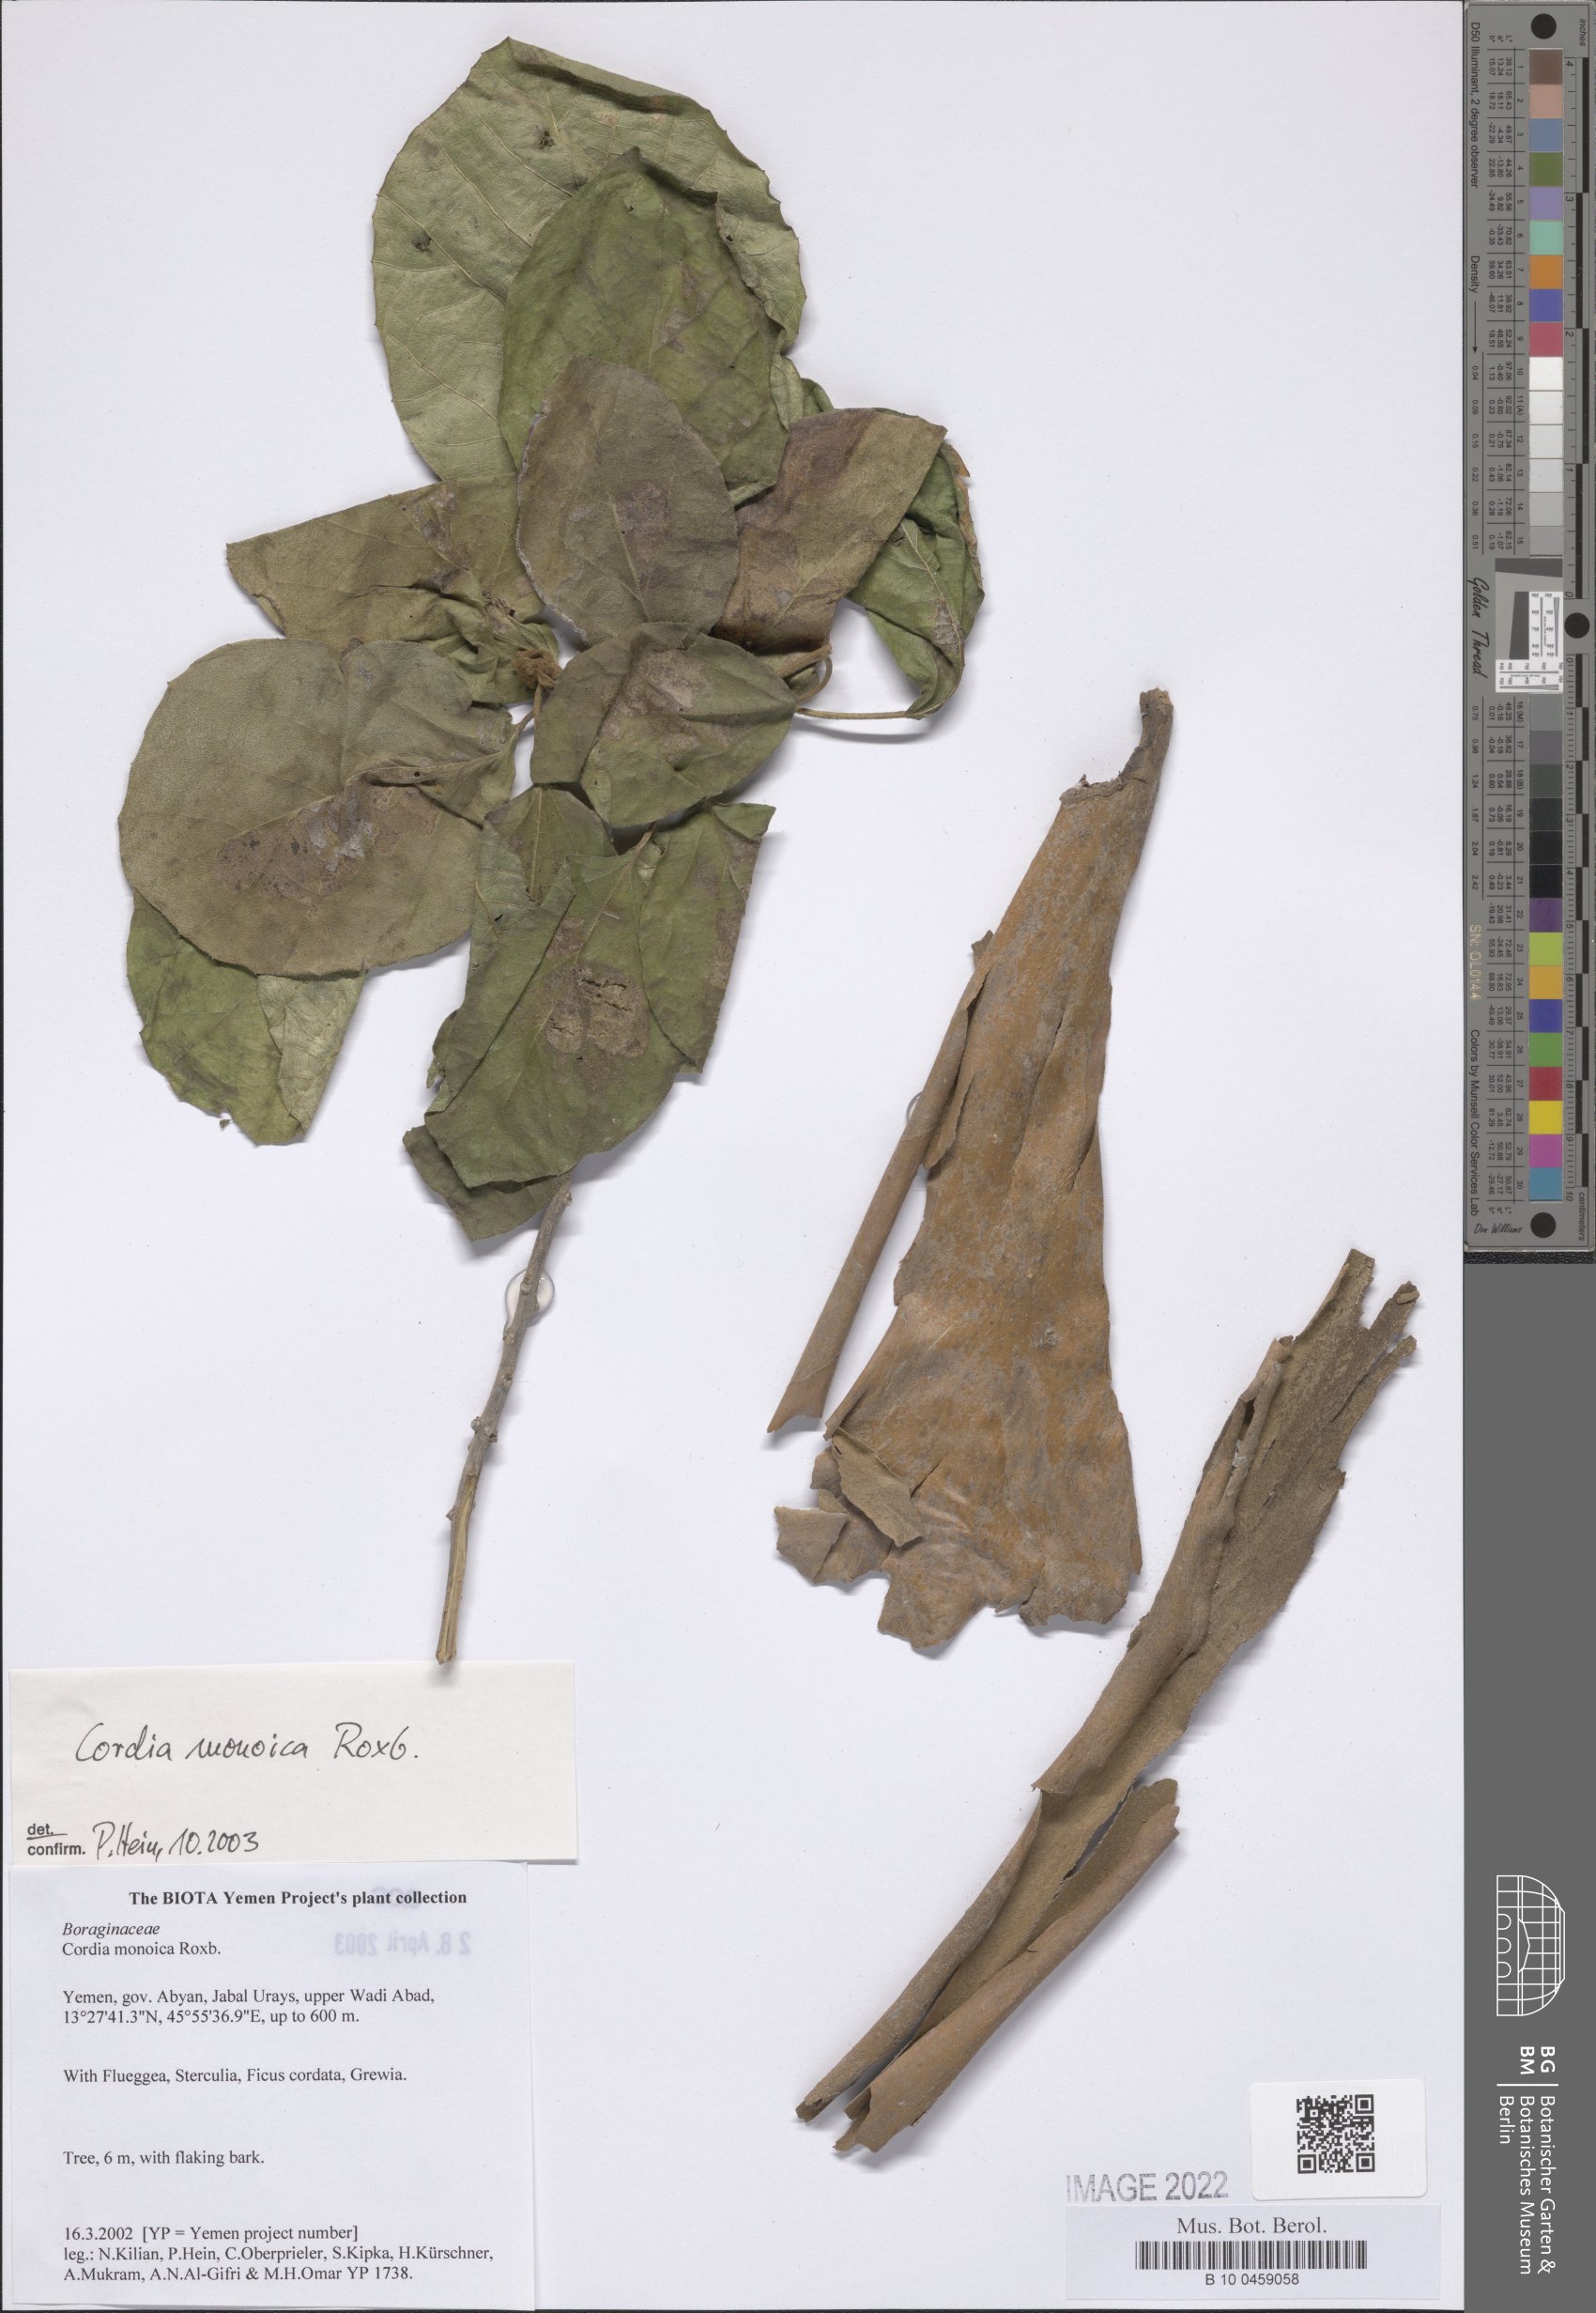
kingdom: Plantae
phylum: Tracheophyta
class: Magnoliopsida
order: Boraginales
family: Cordiaceae
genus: Cordia
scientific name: Cordia monoica
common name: Snot berry
